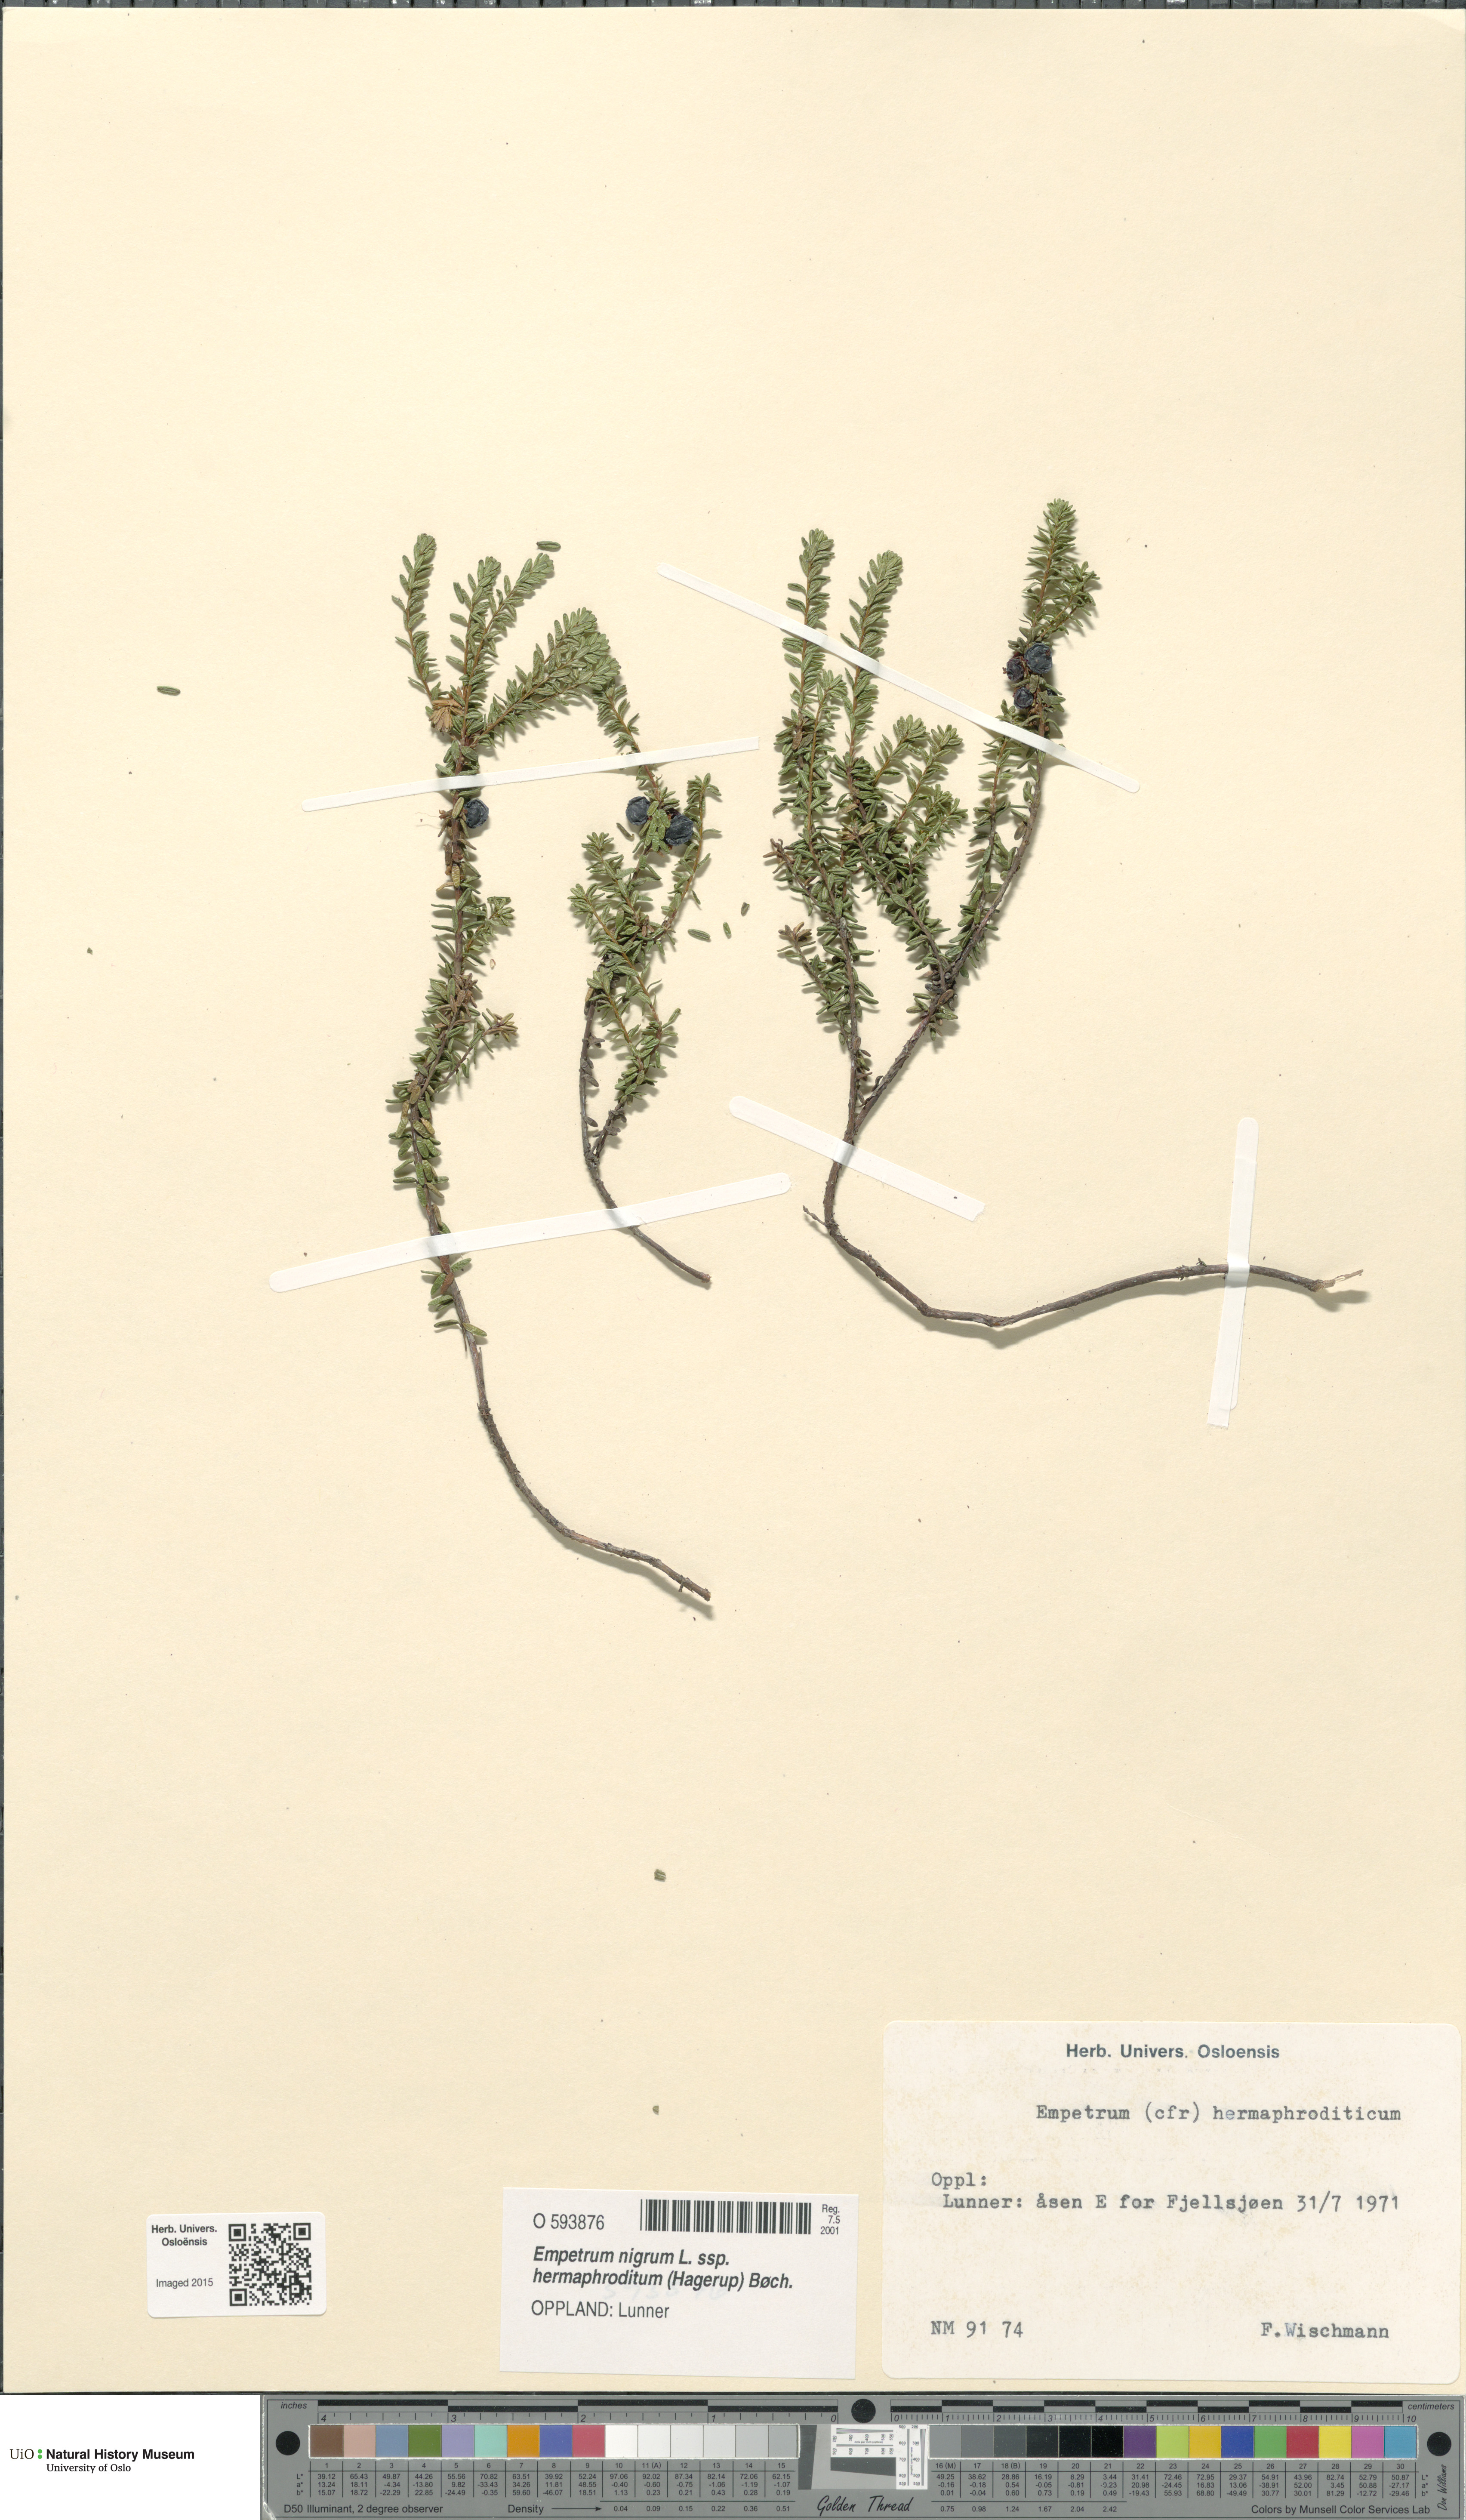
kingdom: Plantae
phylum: Tracheophyta
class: Magnoliopsida
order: Ericales
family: Ericaceae
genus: Empetrum
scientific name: Empetrum hermaphroditum
